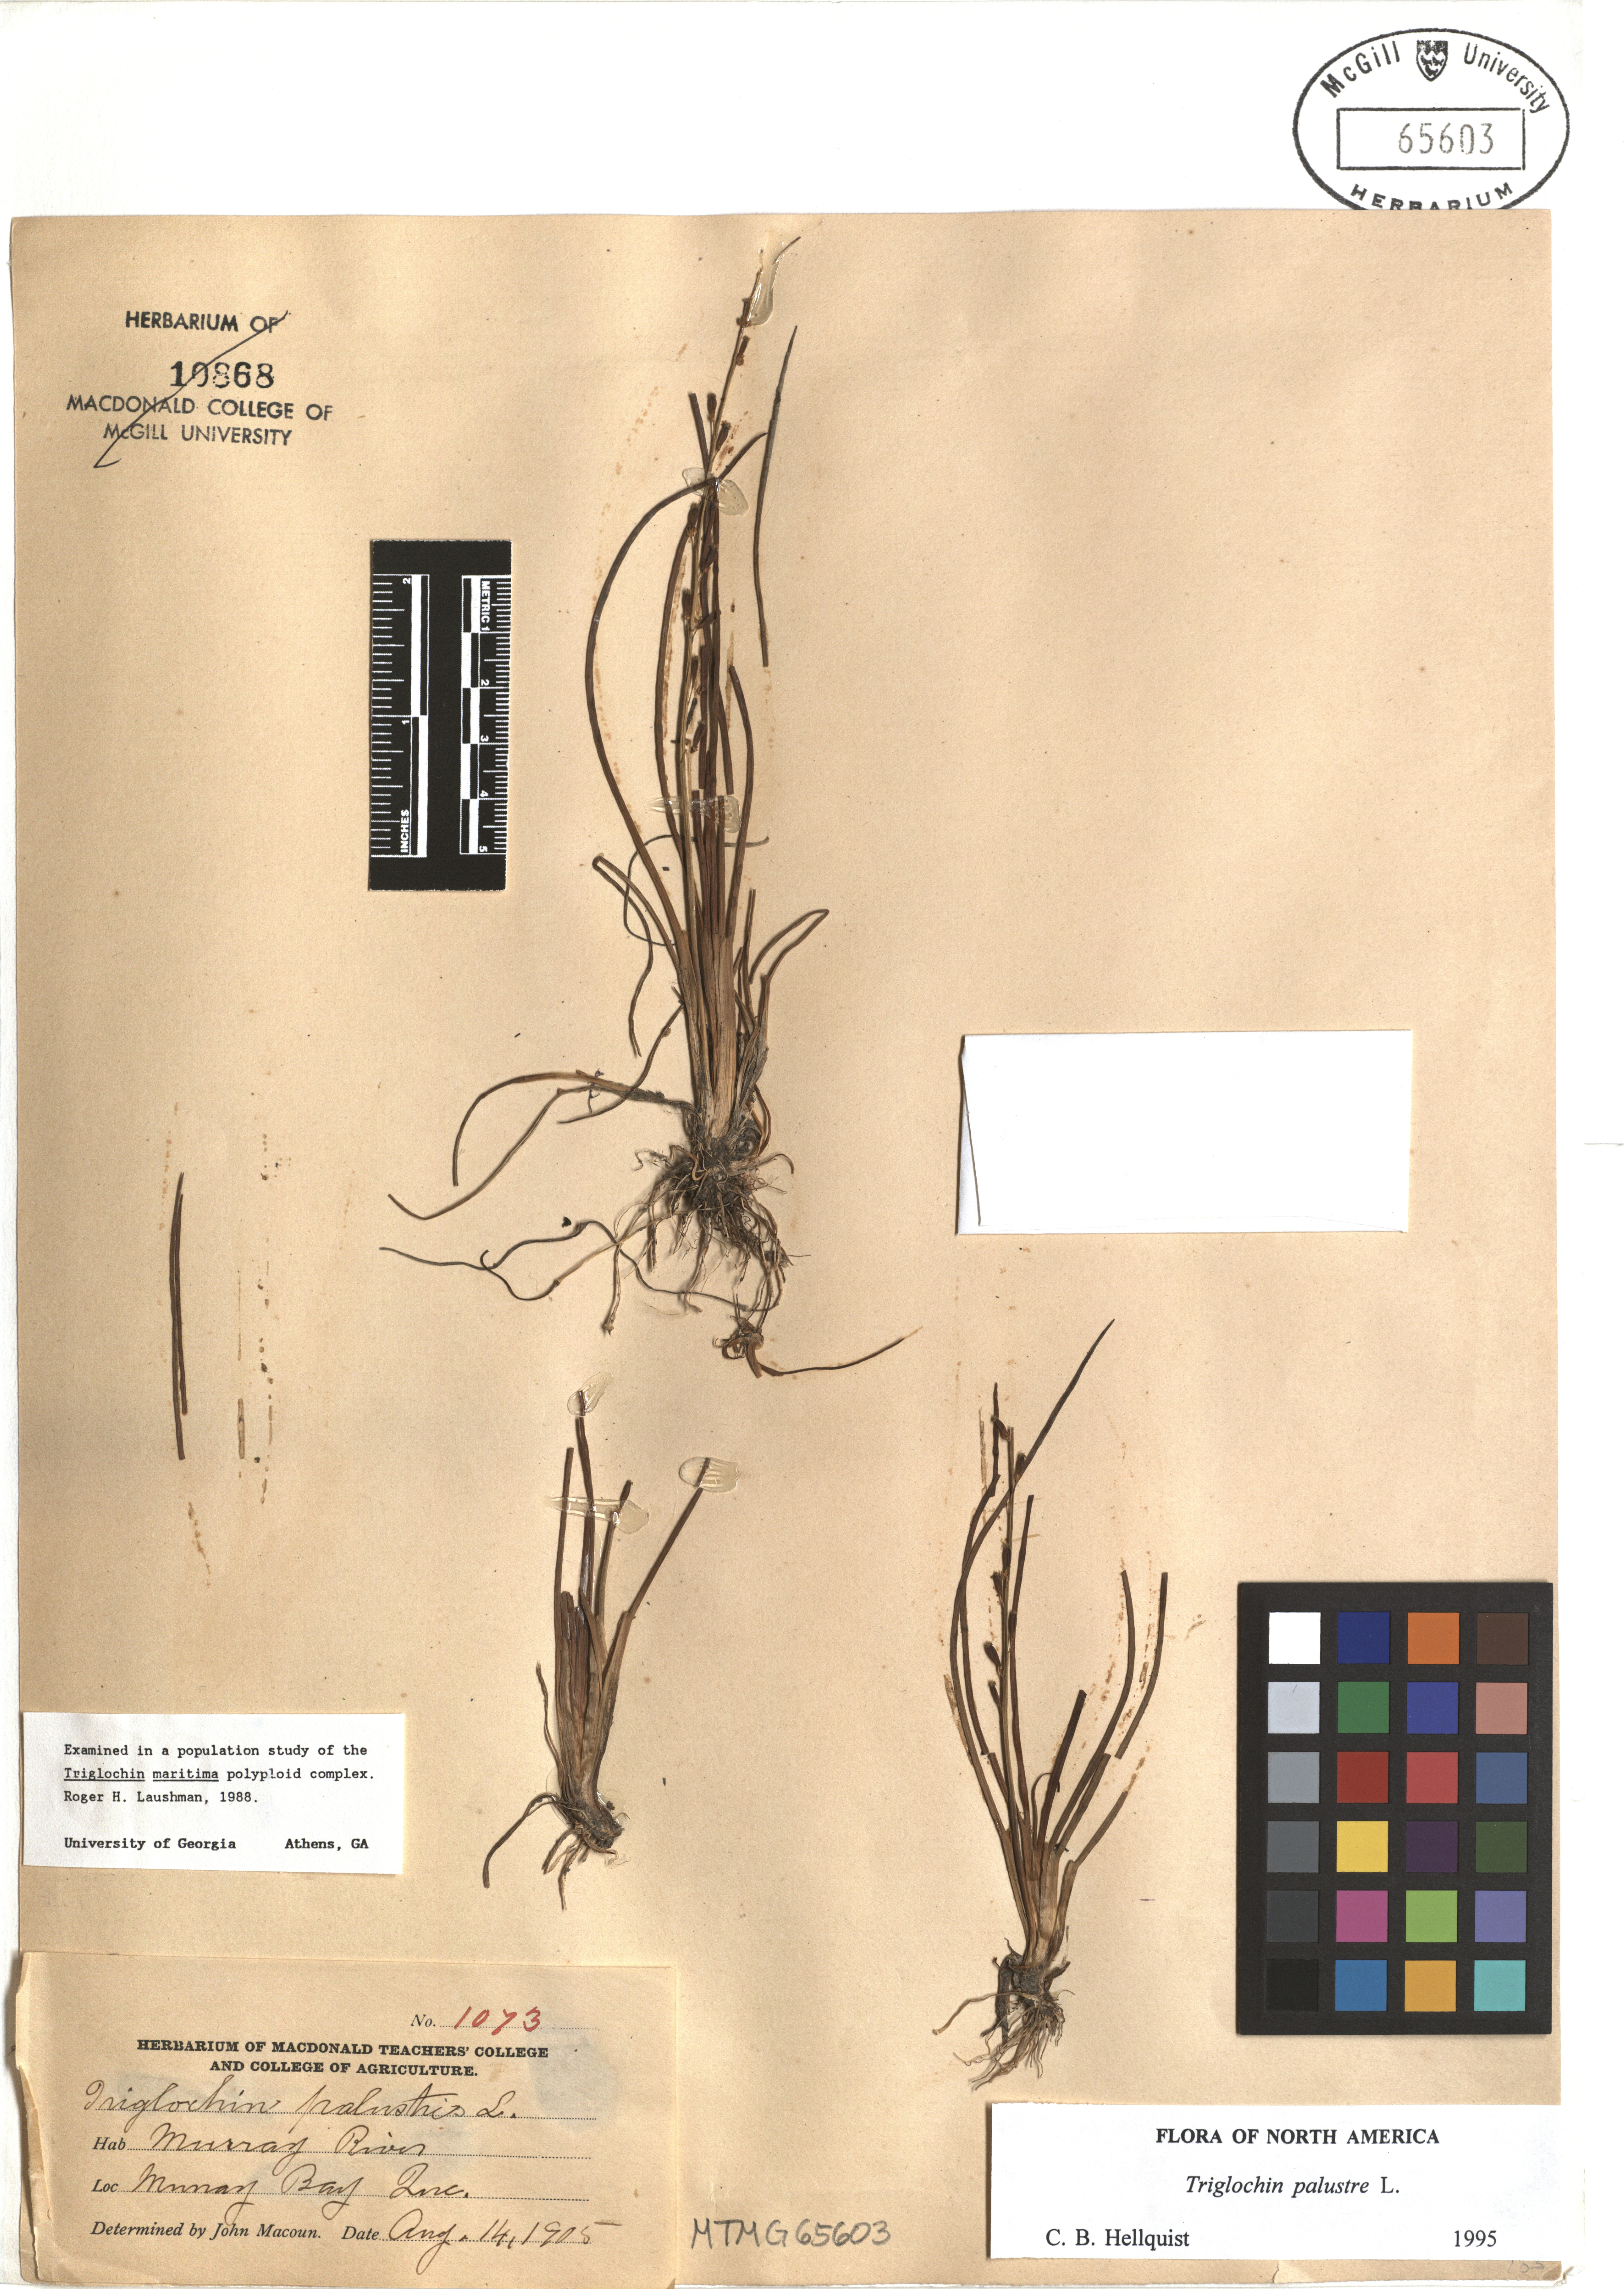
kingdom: Plantae
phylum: Tracheophyta
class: Liliopsida
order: Alismatales
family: Juncaginaceae
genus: Triglochin
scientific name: Triglochin palustris
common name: Marsh arrowgrass
